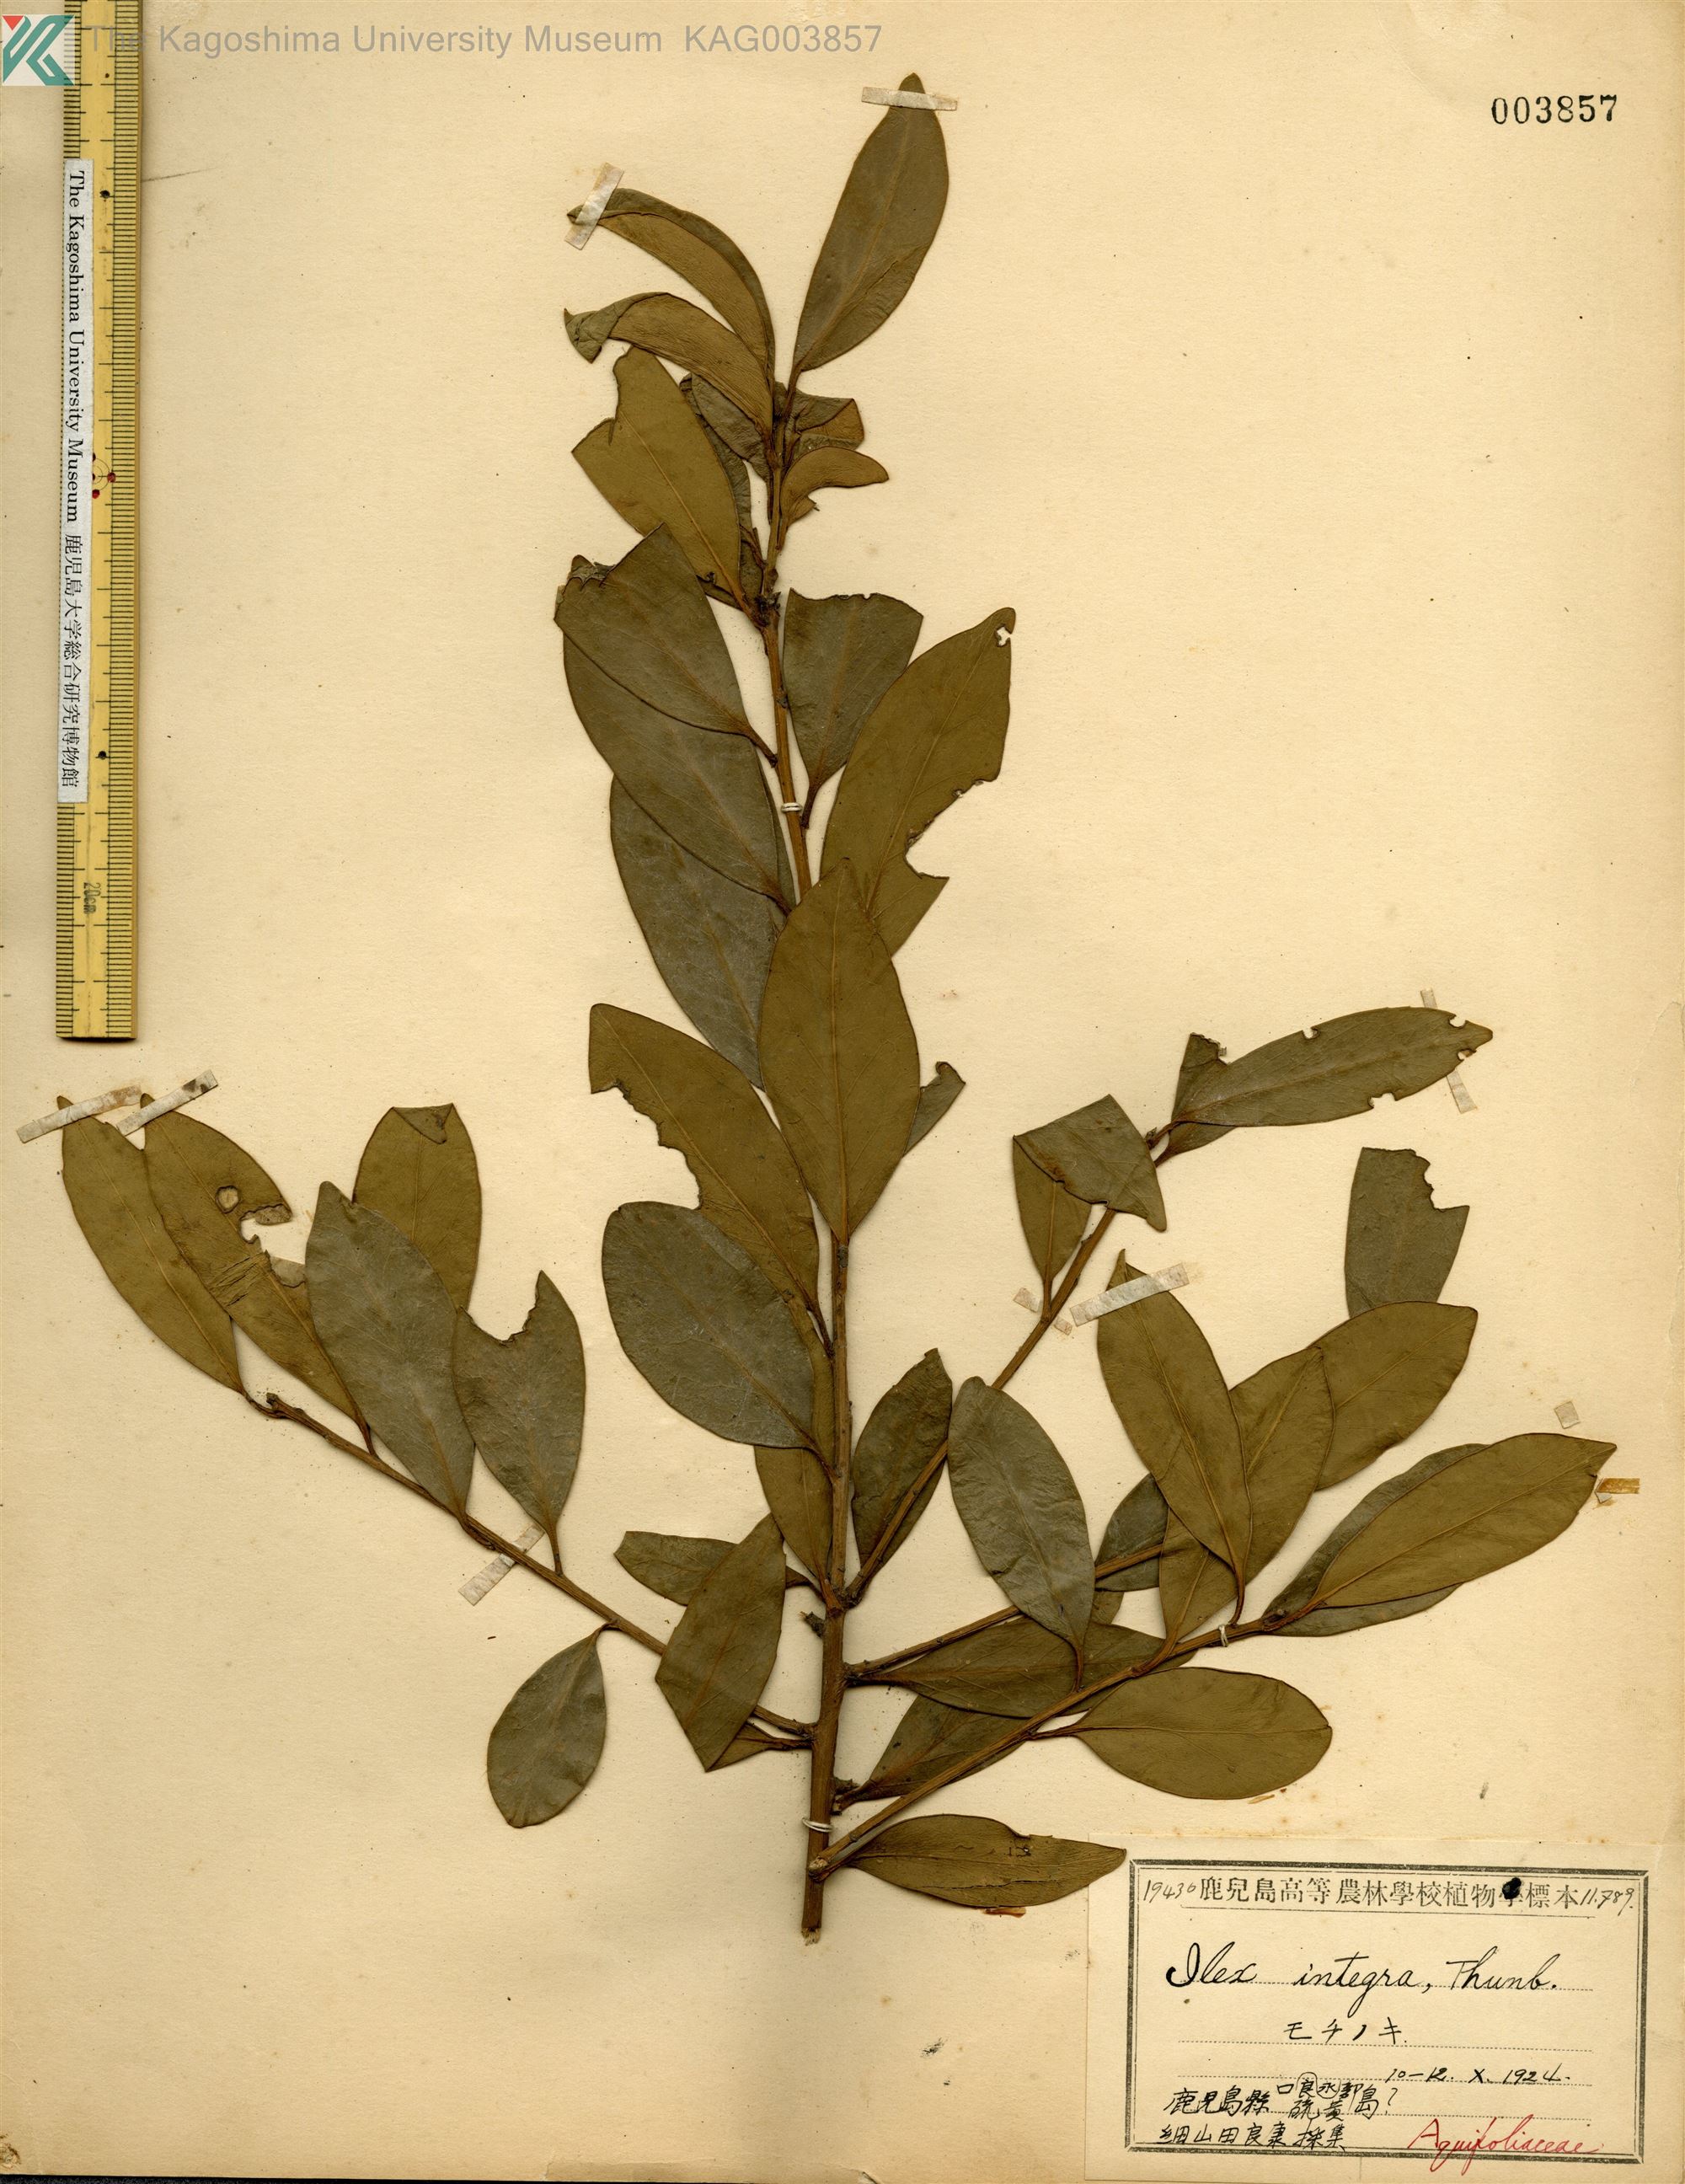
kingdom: Plantae
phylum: Tracheophyta
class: Magnoliopsida
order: Aquifoliales
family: Aquifoliaceae
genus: Ilex
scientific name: Ilex integra
